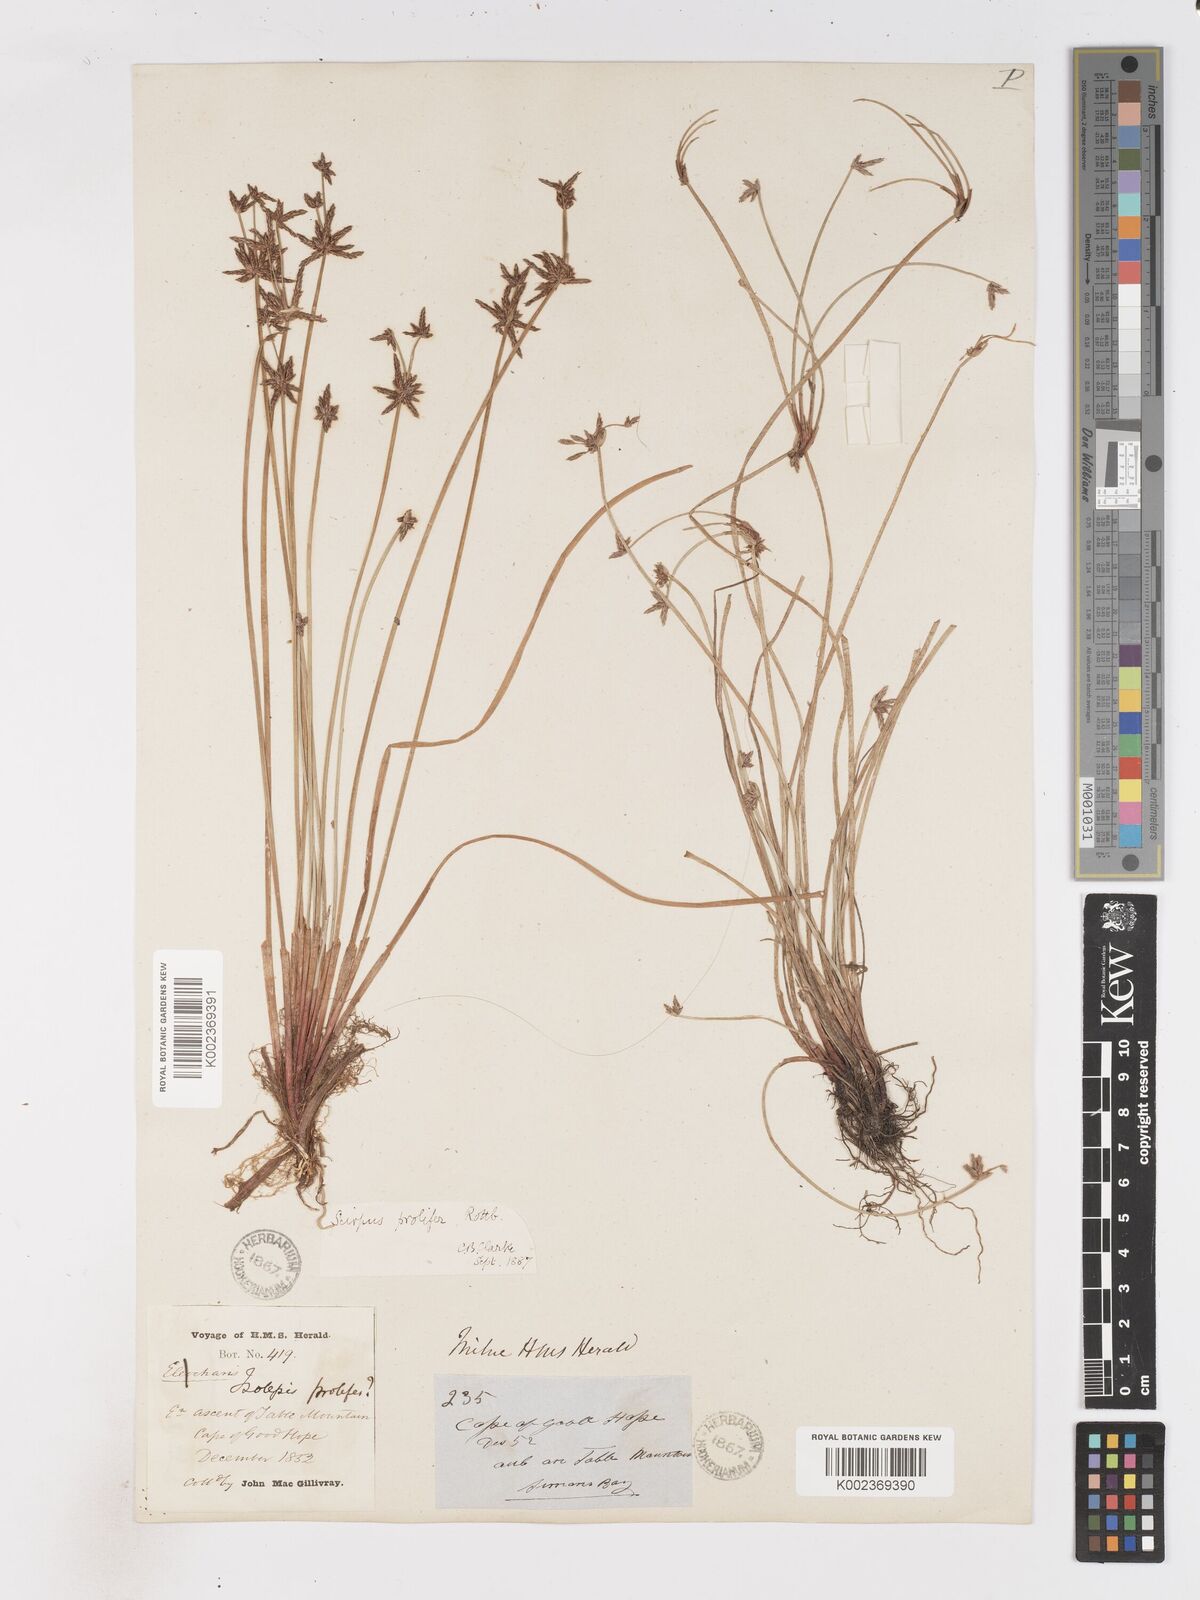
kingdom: Plantae
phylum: Tracheophyta
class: Liliopsida
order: Poales
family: Cyperaceae
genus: Isolepis
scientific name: Isolepis prolifera
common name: Proliferating bulrush
